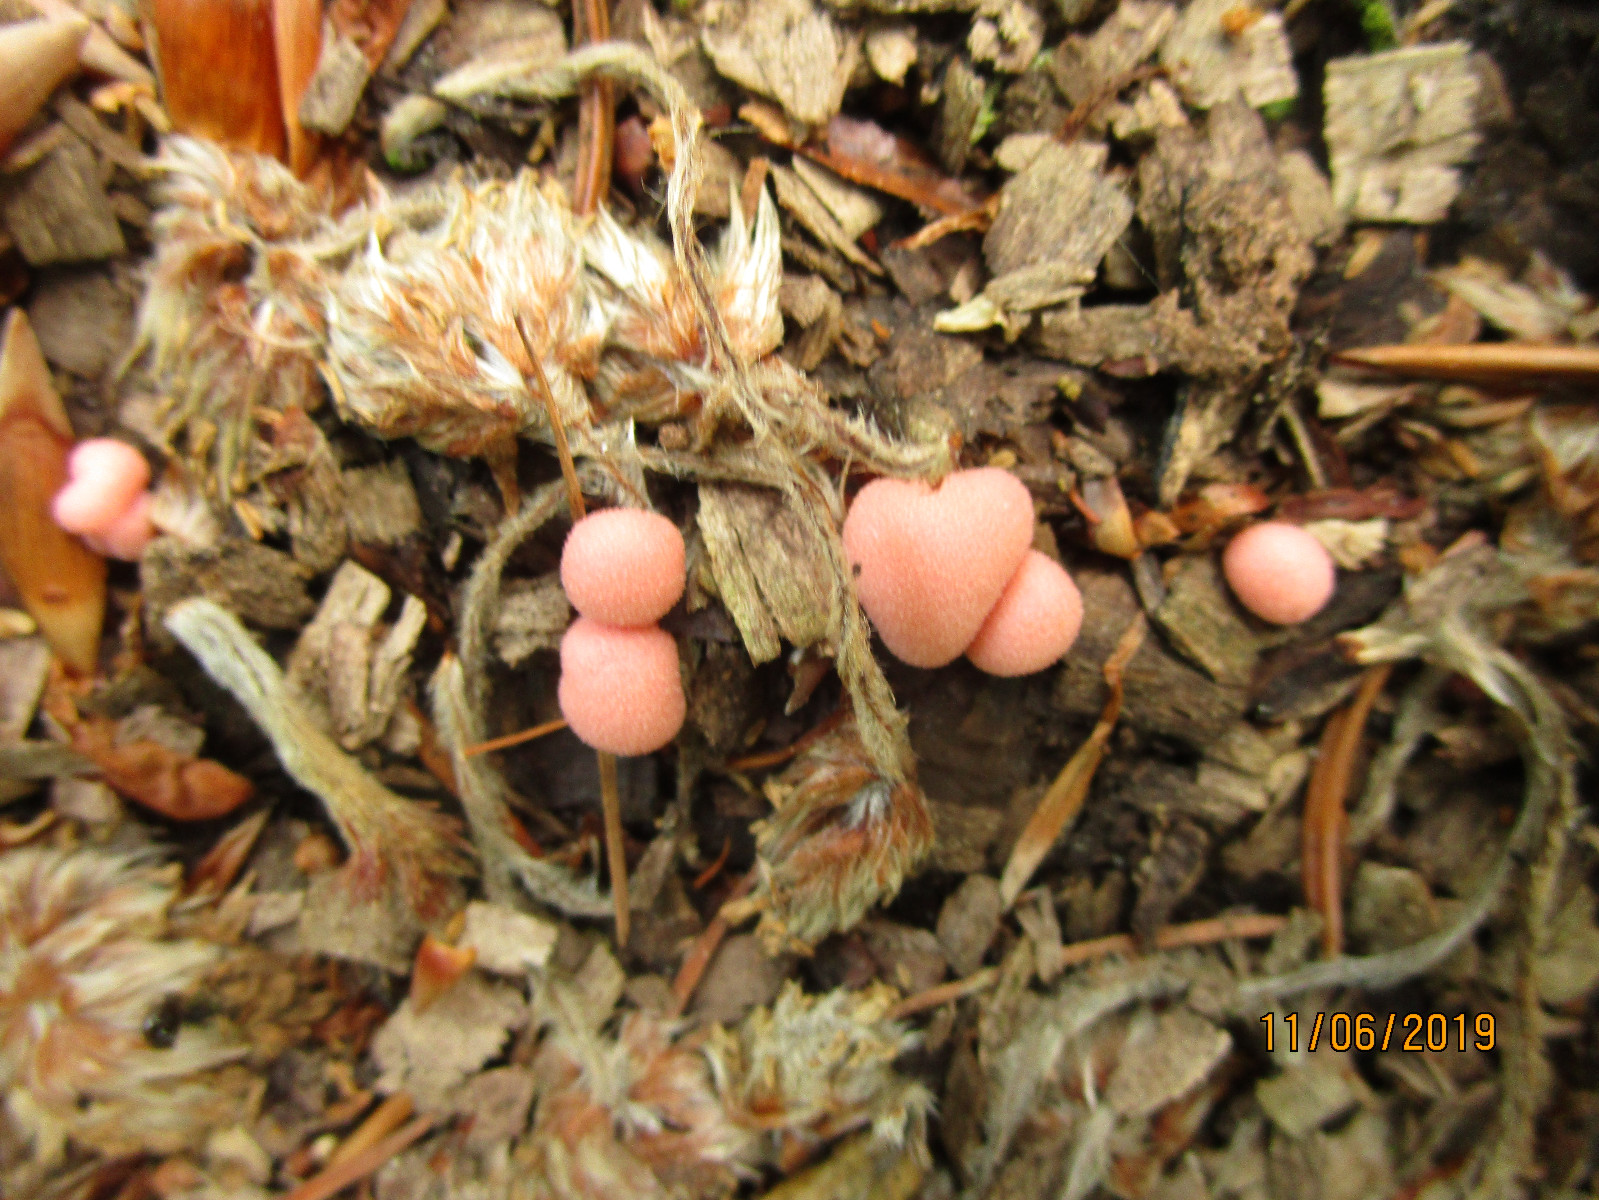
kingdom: Protozoa
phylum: Mycetozoa
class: Myxomycetes
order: Cribrariales
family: Tubiferaceae
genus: Lycogala
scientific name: Lycogala epidendrum
